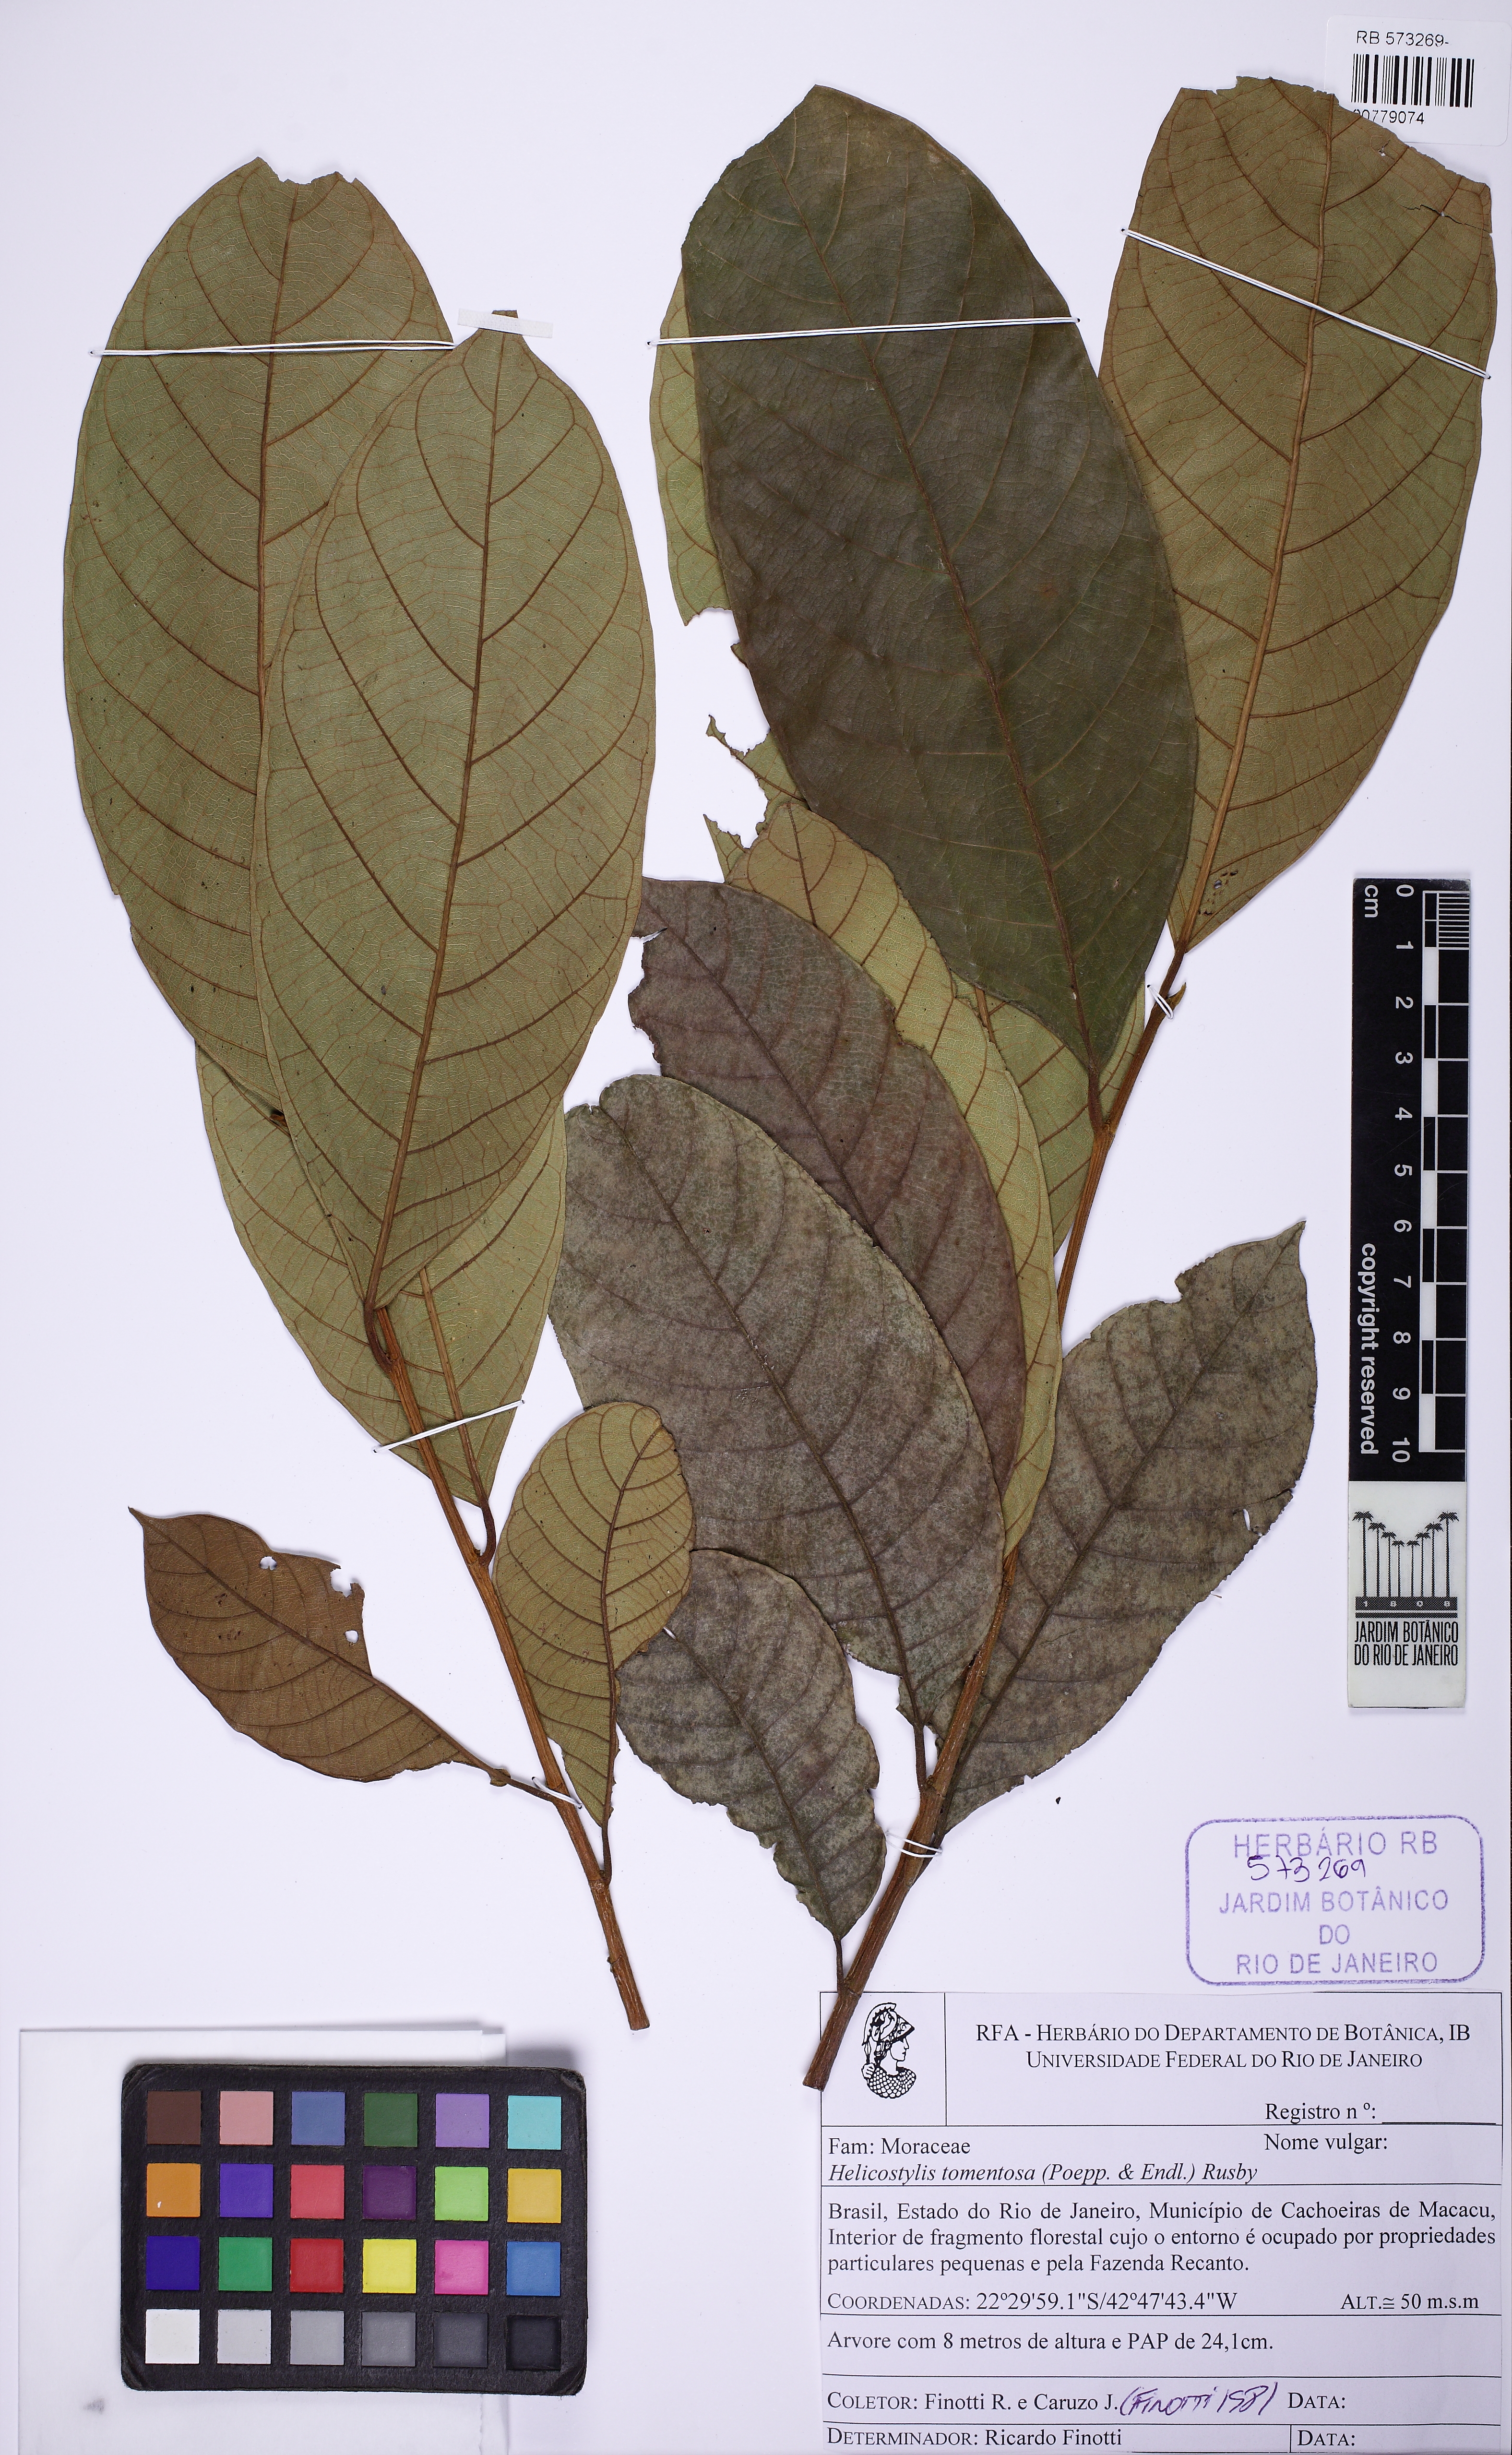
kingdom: Plantae
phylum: Tracheophyta
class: Magnoliopsida
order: Rosales
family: Moraceae
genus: Helicostylis
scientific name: Helicostylis tomentosa
